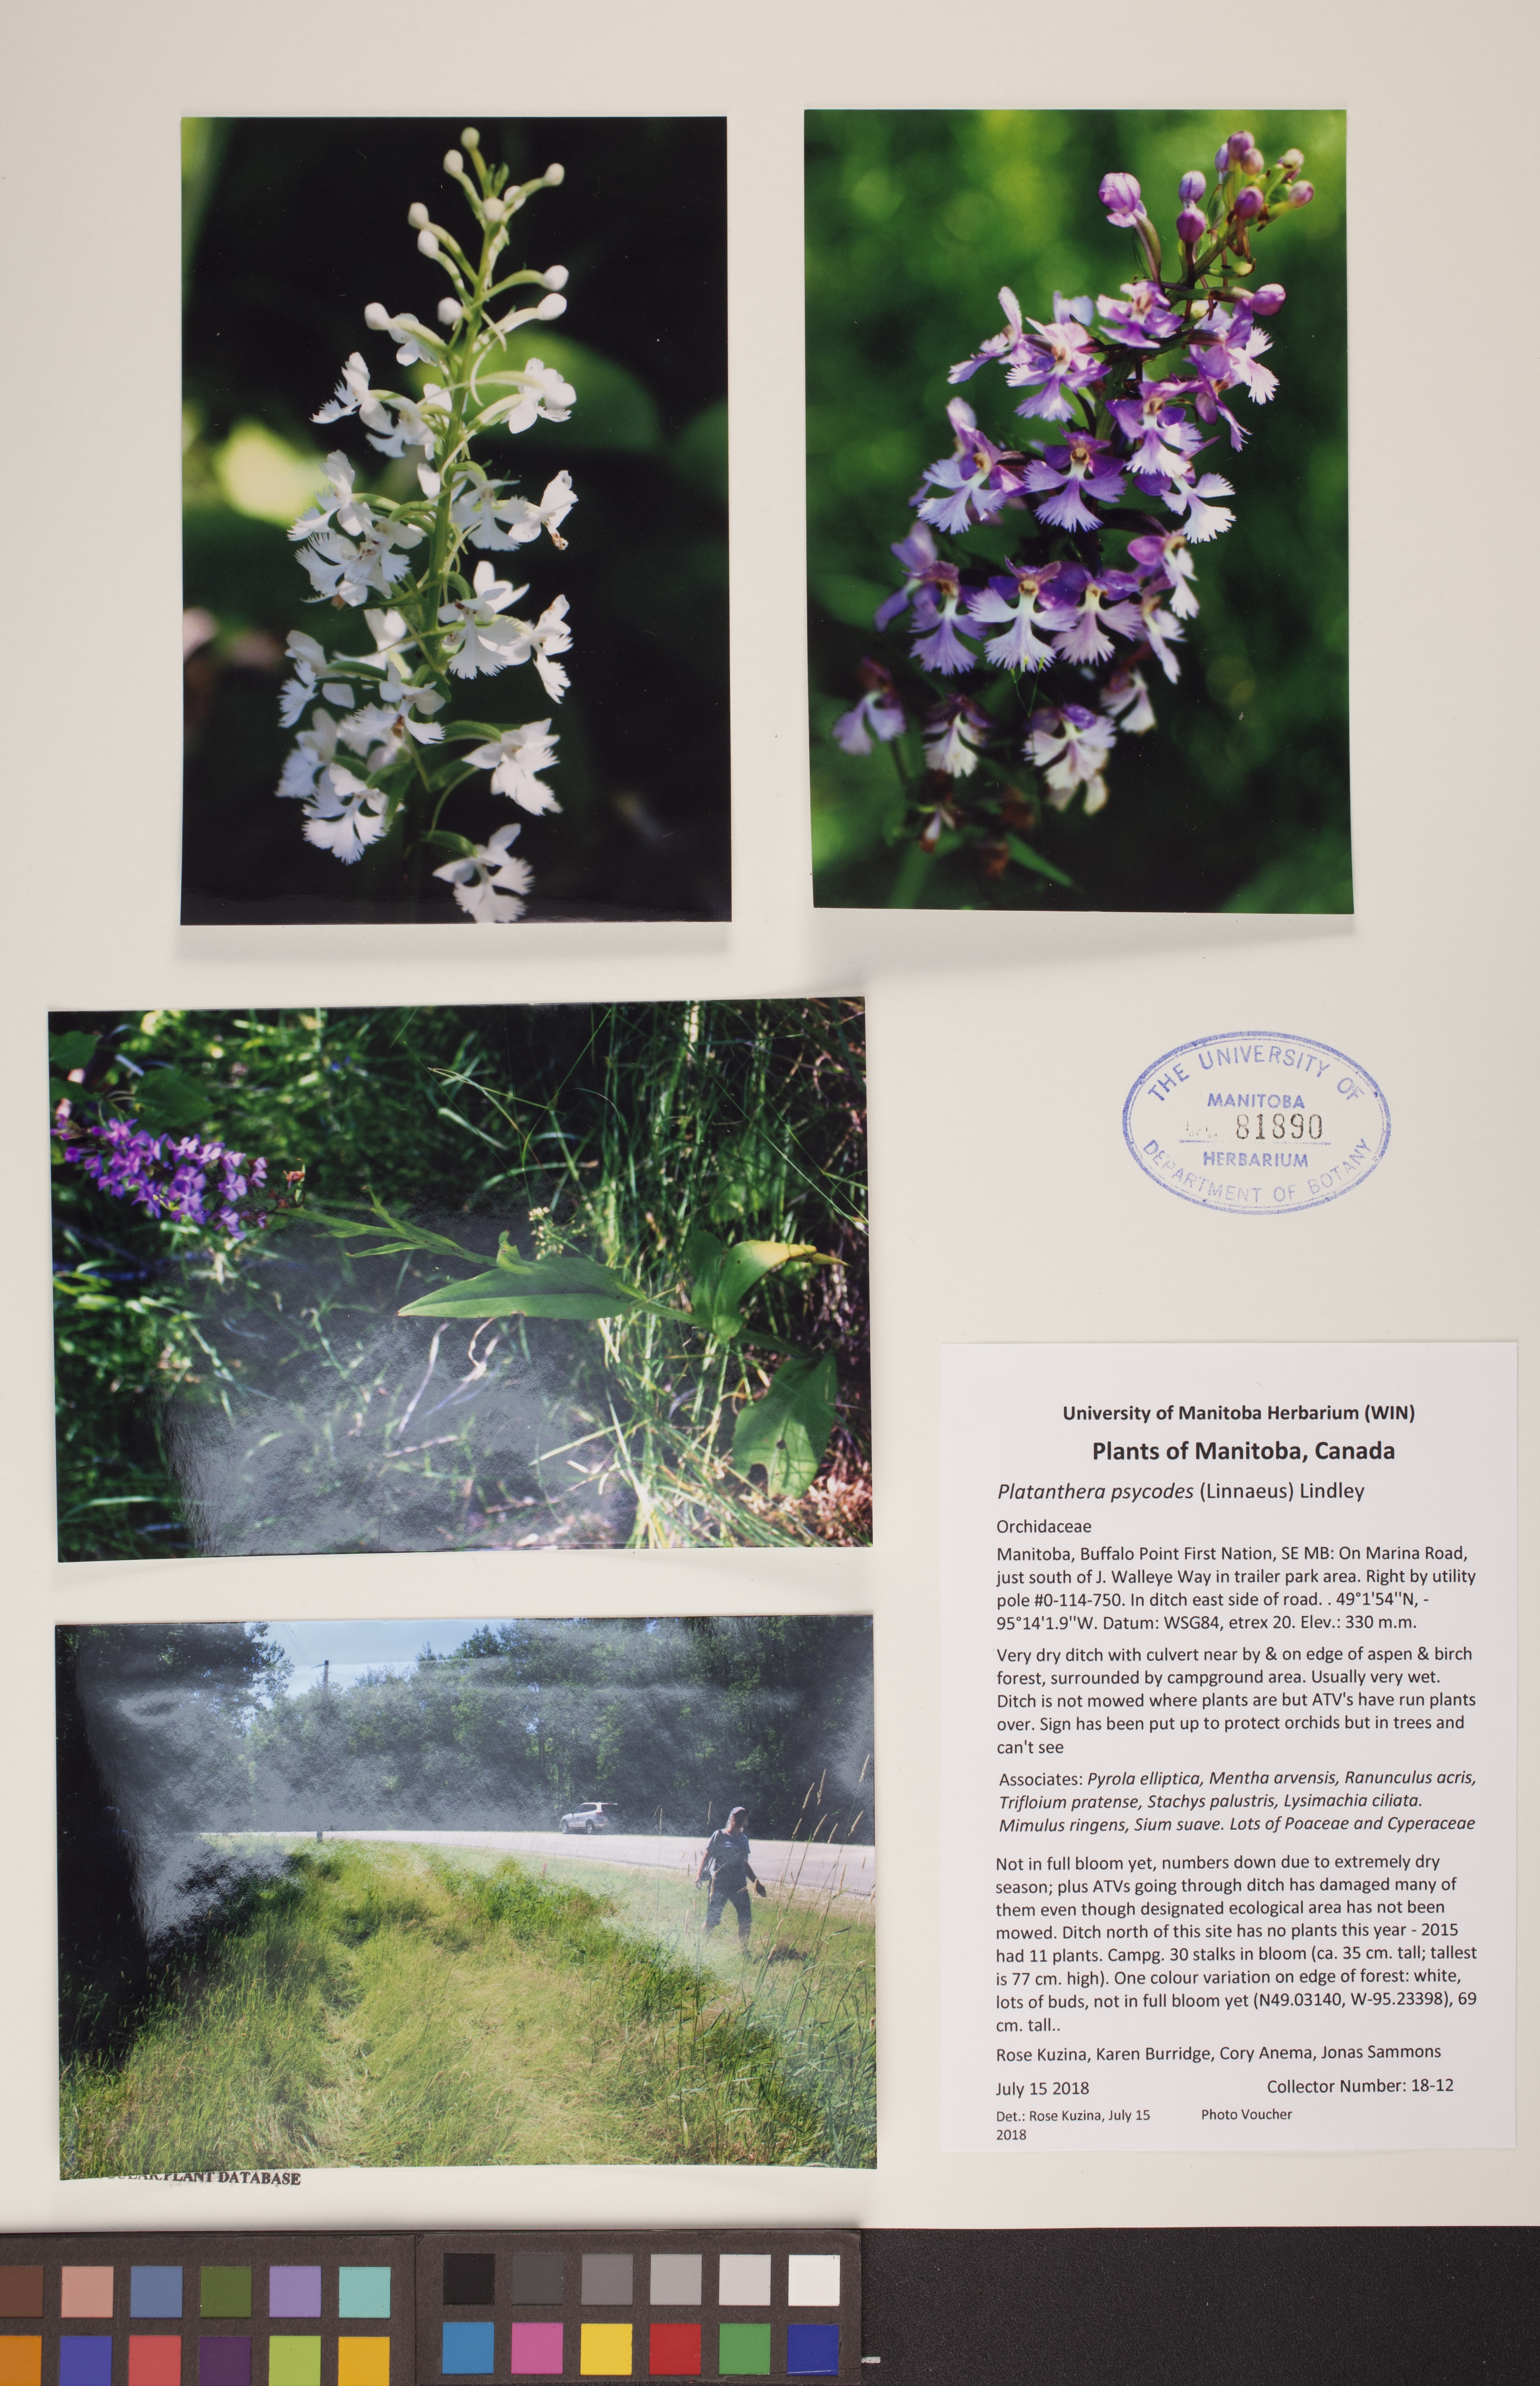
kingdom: Plantae
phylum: Tracheophyta
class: Liliopsida
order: Asparagales
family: Orchidaceae
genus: Platanthera
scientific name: Platanthera psycodes
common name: Lesser purple fringed orchid
